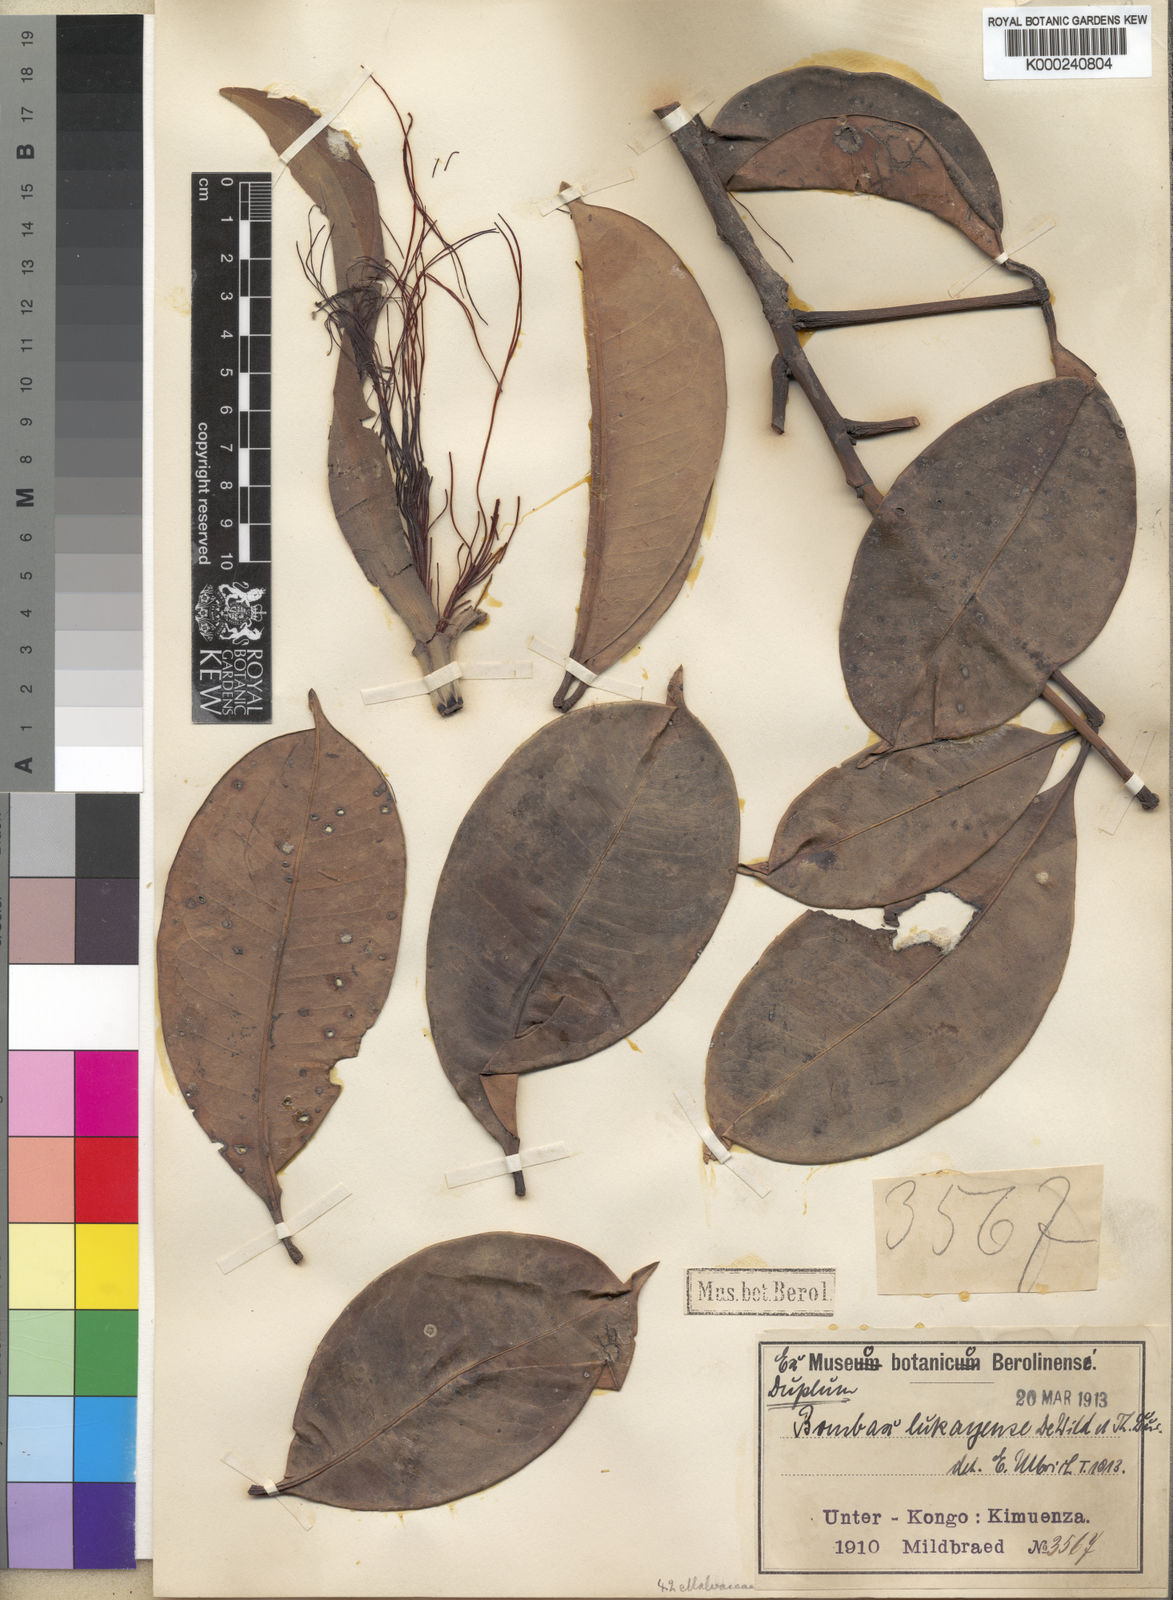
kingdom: Plantae
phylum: Tracheophyta
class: Magnoliopsida
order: Malvales
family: Malvaceae
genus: Rhodognaphalon
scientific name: Rhodognaphalon lukayense
